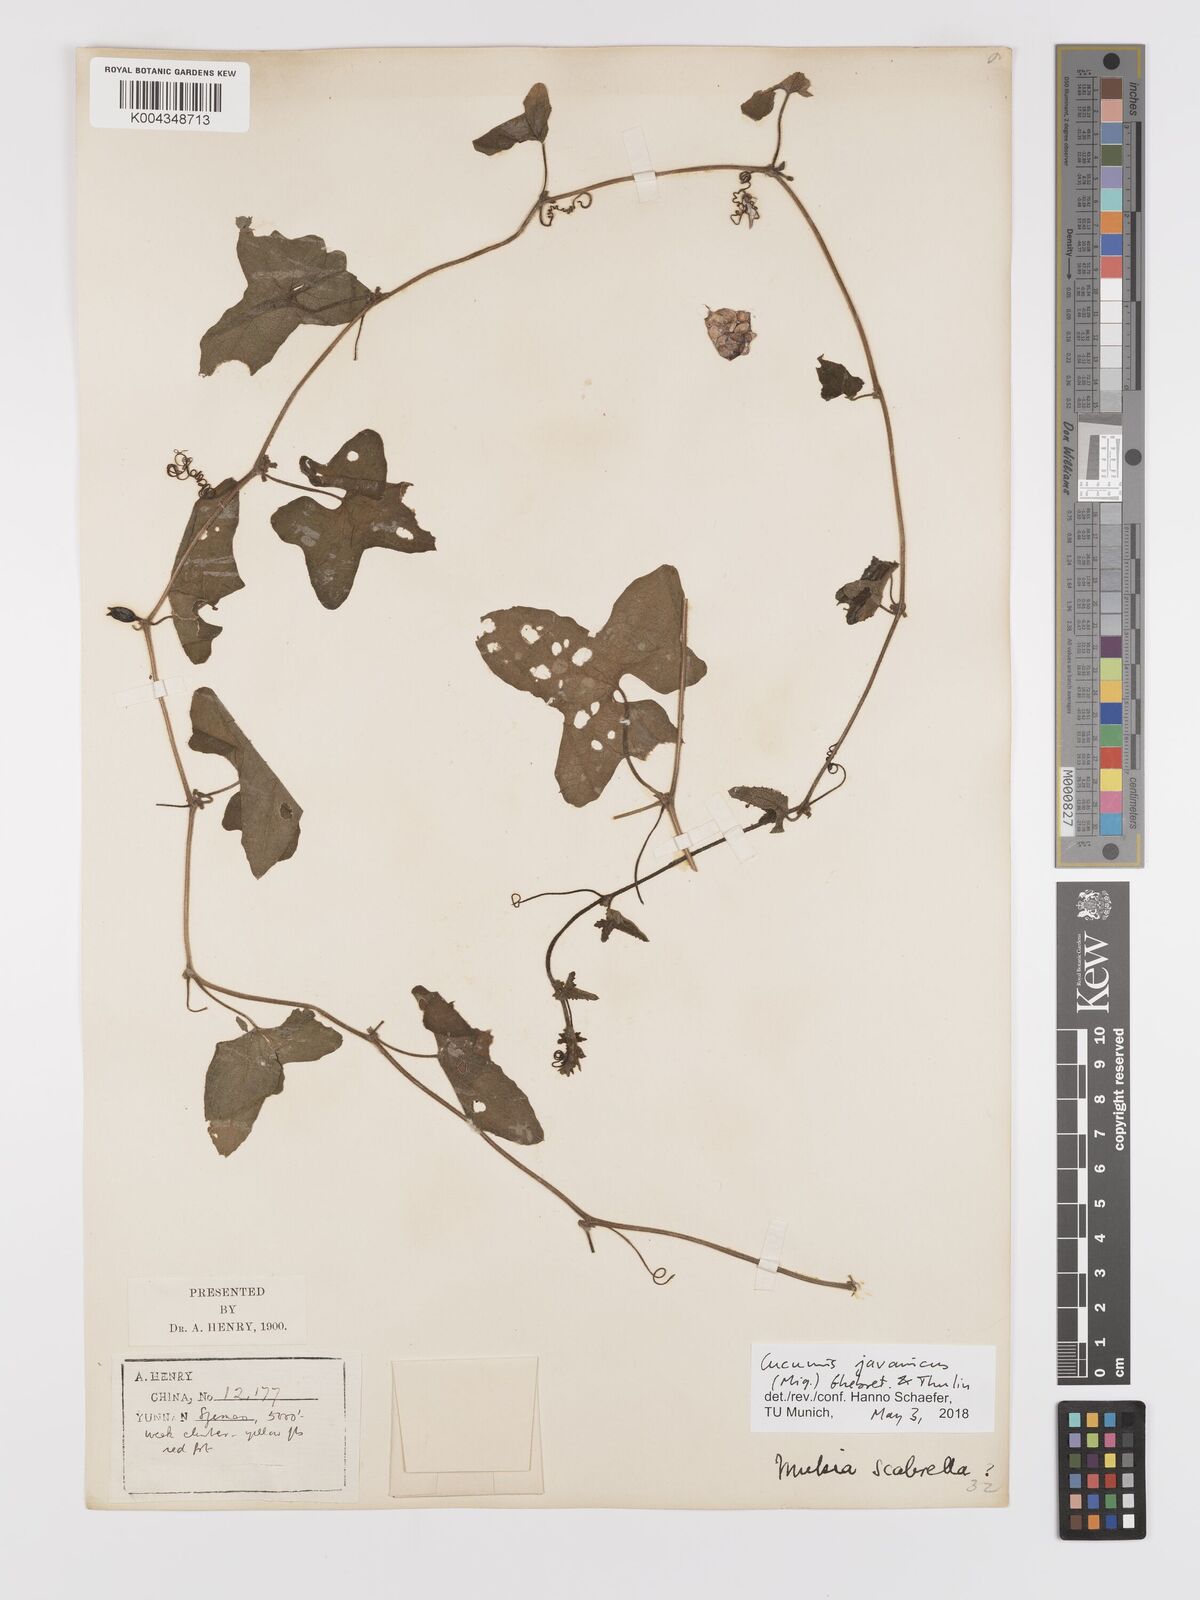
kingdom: Plantae
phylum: Tracheophyta
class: Magnoliopsida
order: Cucurbitales
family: Cucurbitaceae
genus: Cucumis
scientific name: Cucumis javanicus
